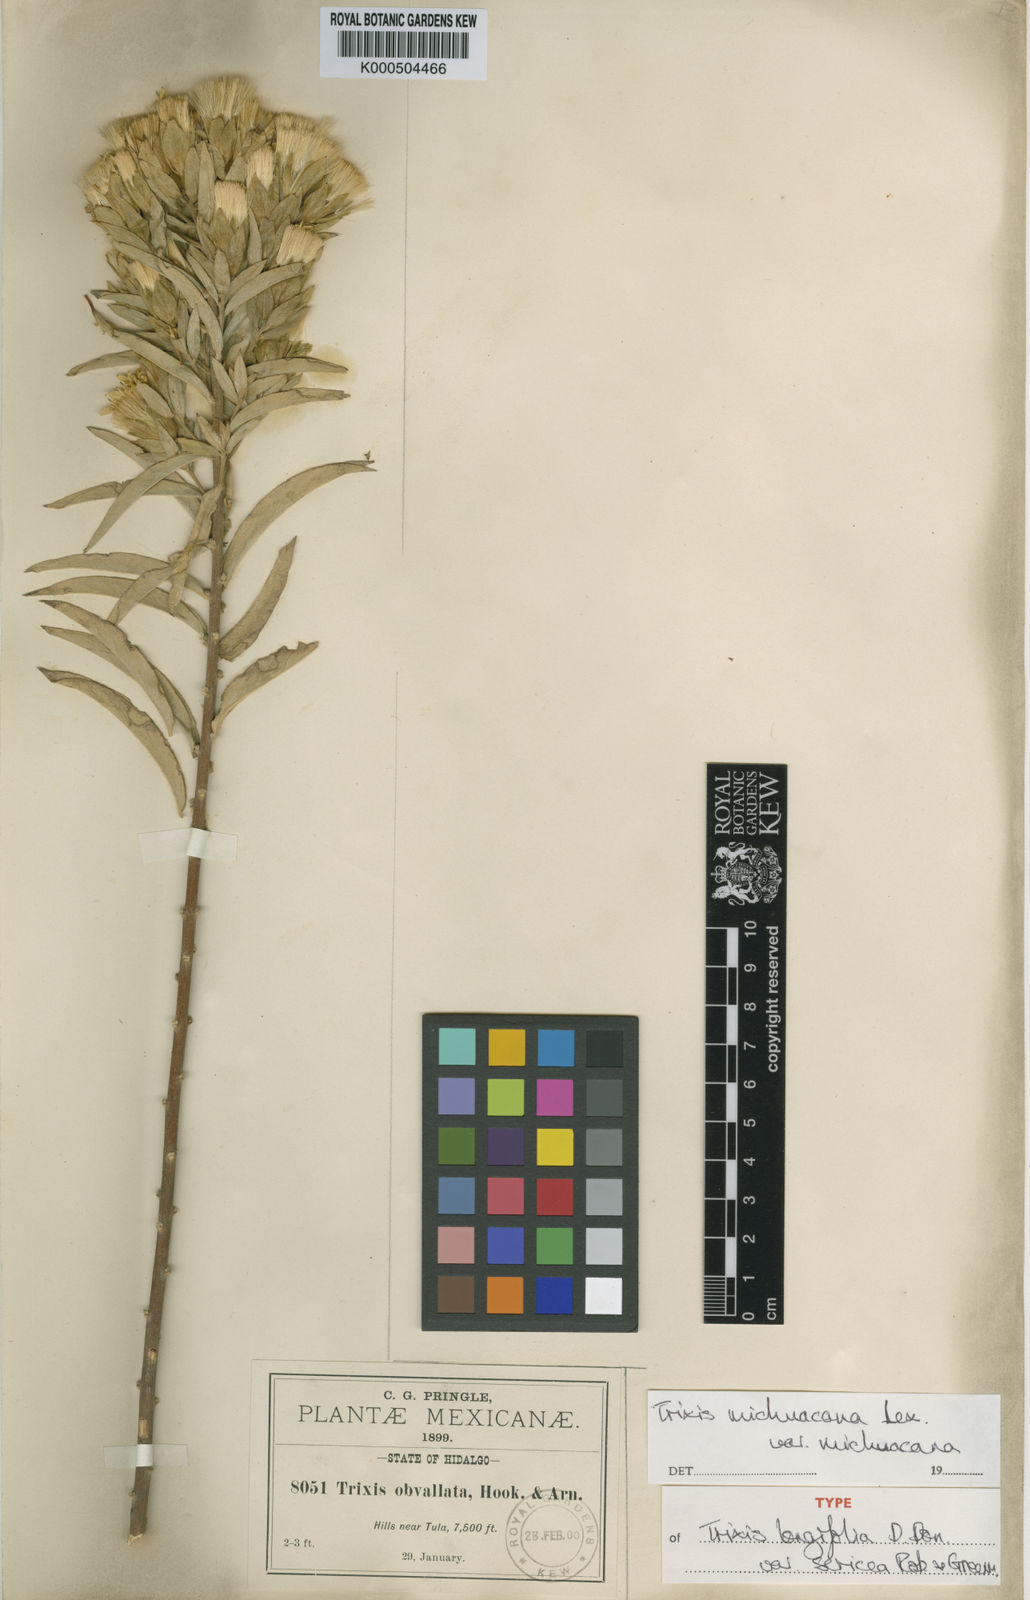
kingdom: Plantae
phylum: Tracheophyta
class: Magnoliopsida
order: Asterales
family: Asteraceae
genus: Trixis
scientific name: Trixis michuacana
